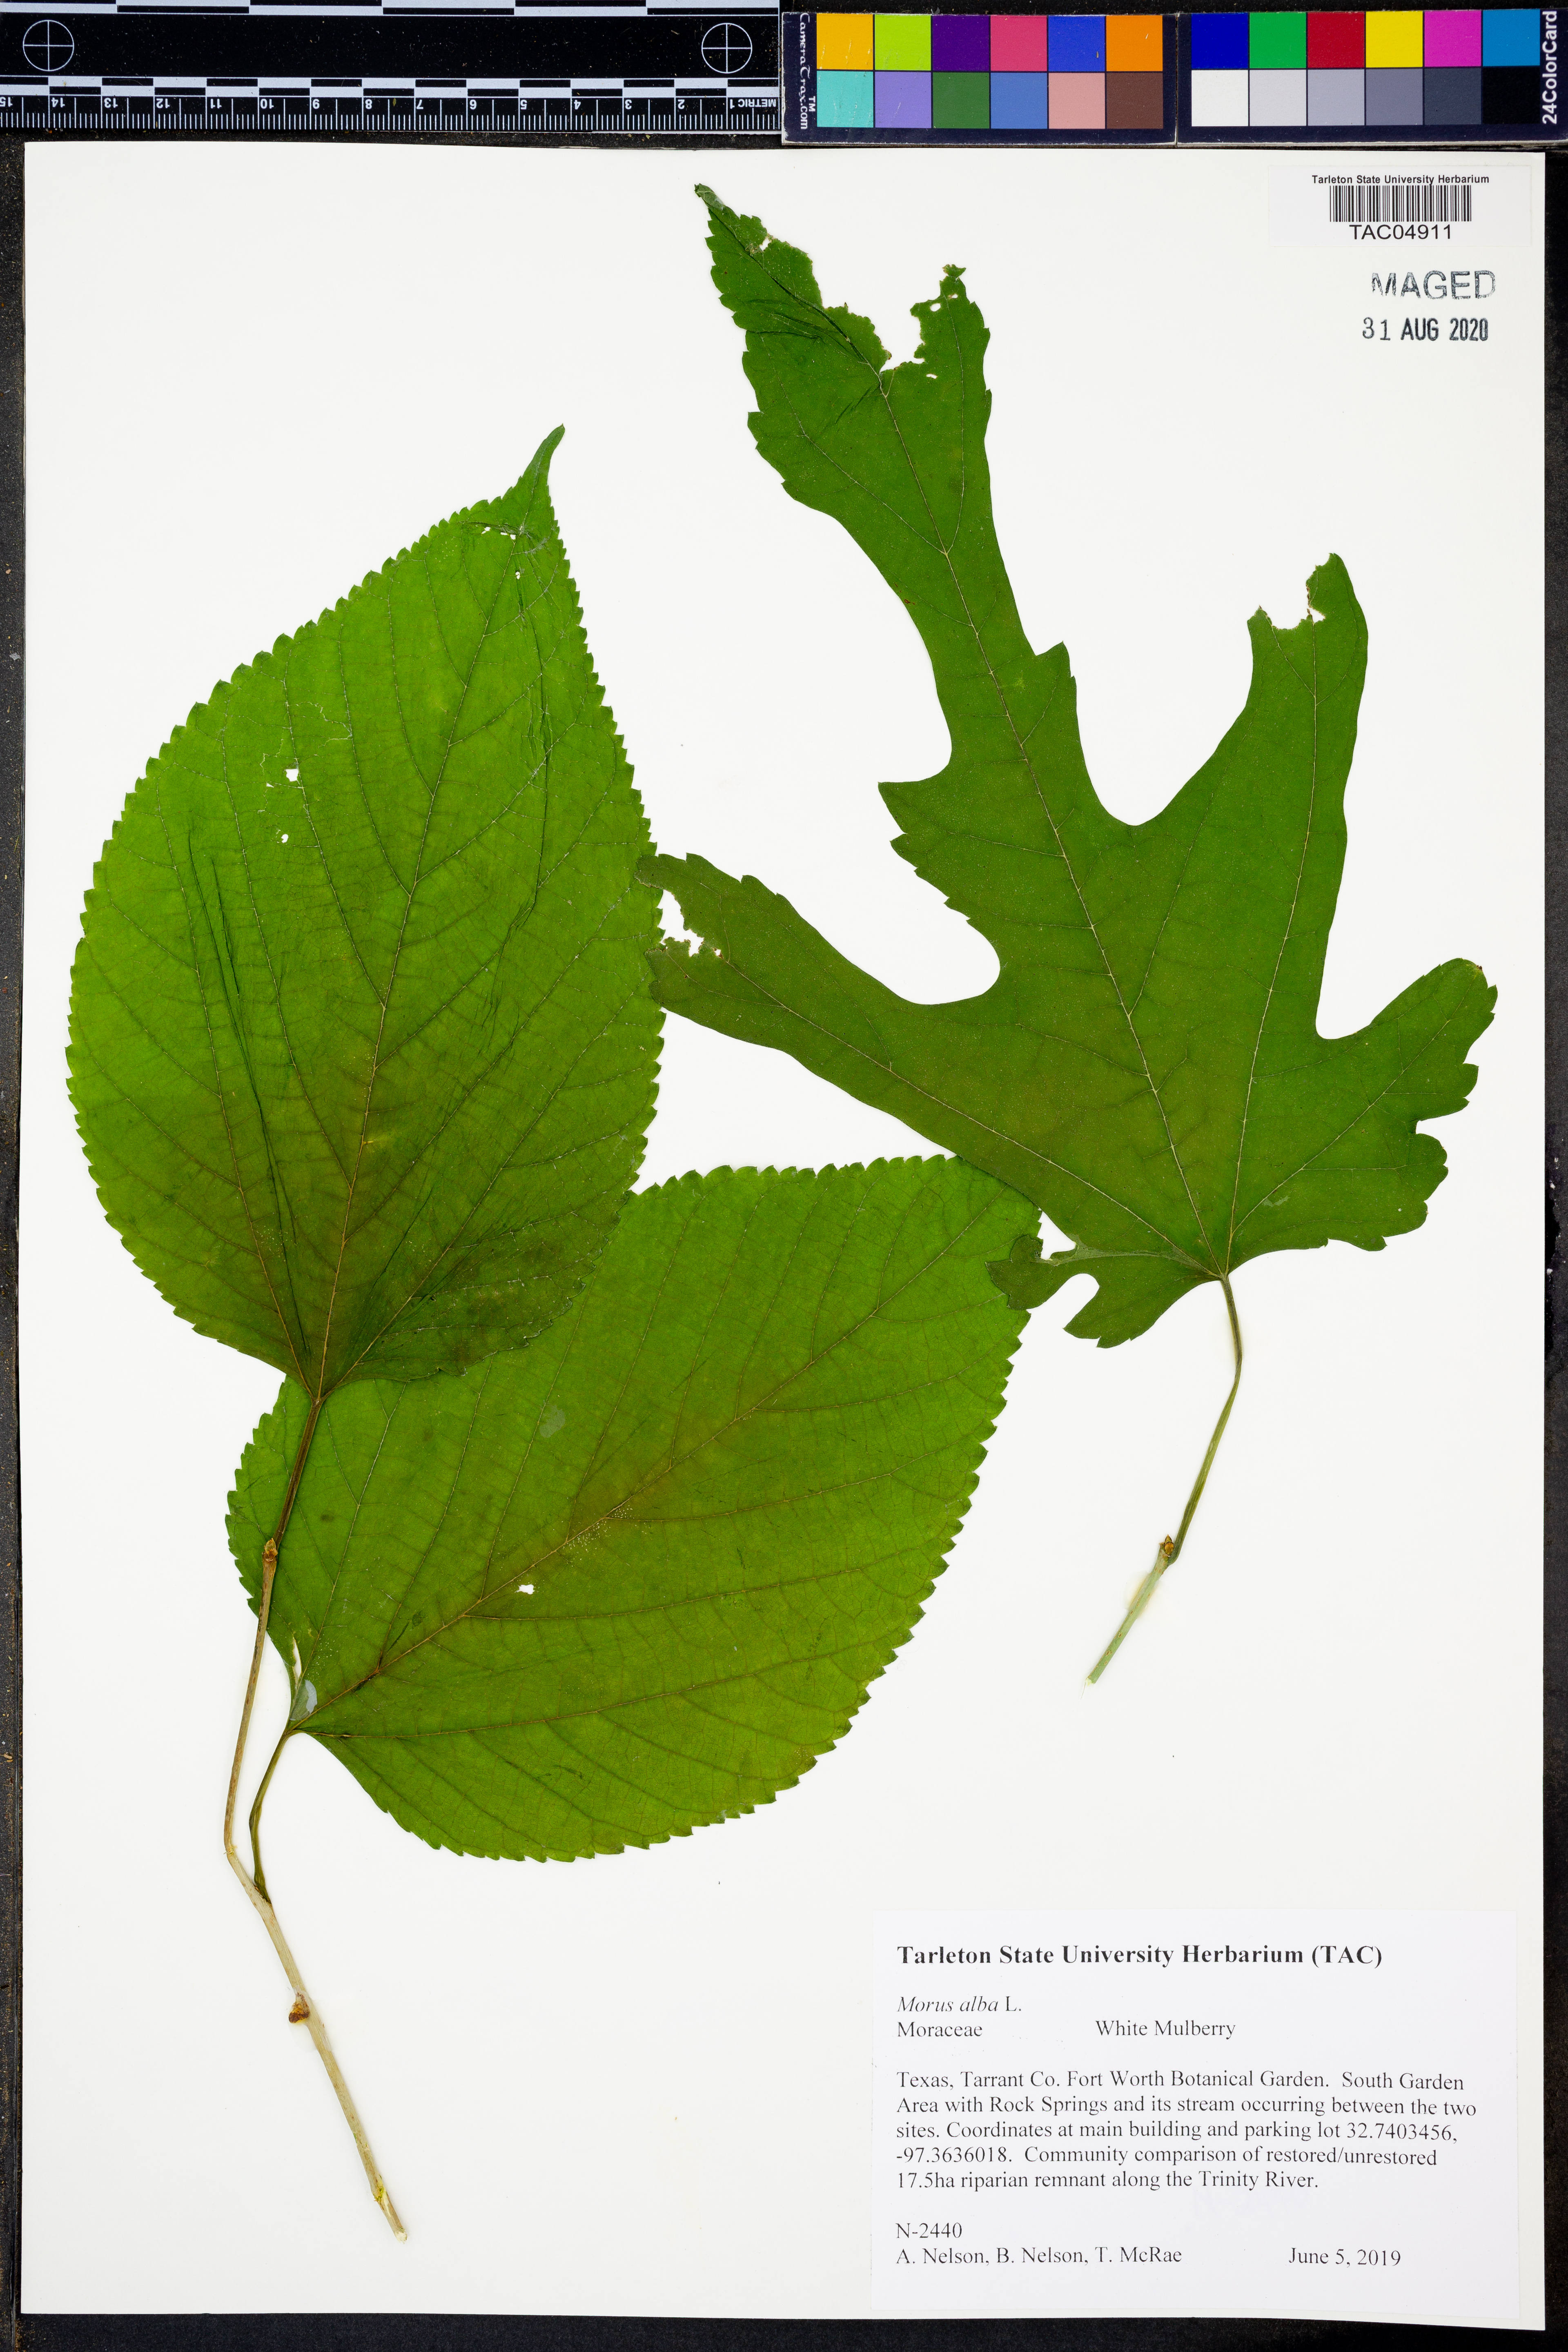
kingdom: Plantae
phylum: Tracheophyta
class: Magnoliopsida
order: Rosales
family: Moraceae
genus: Morus
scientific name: Morus alba
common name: White mulberry
